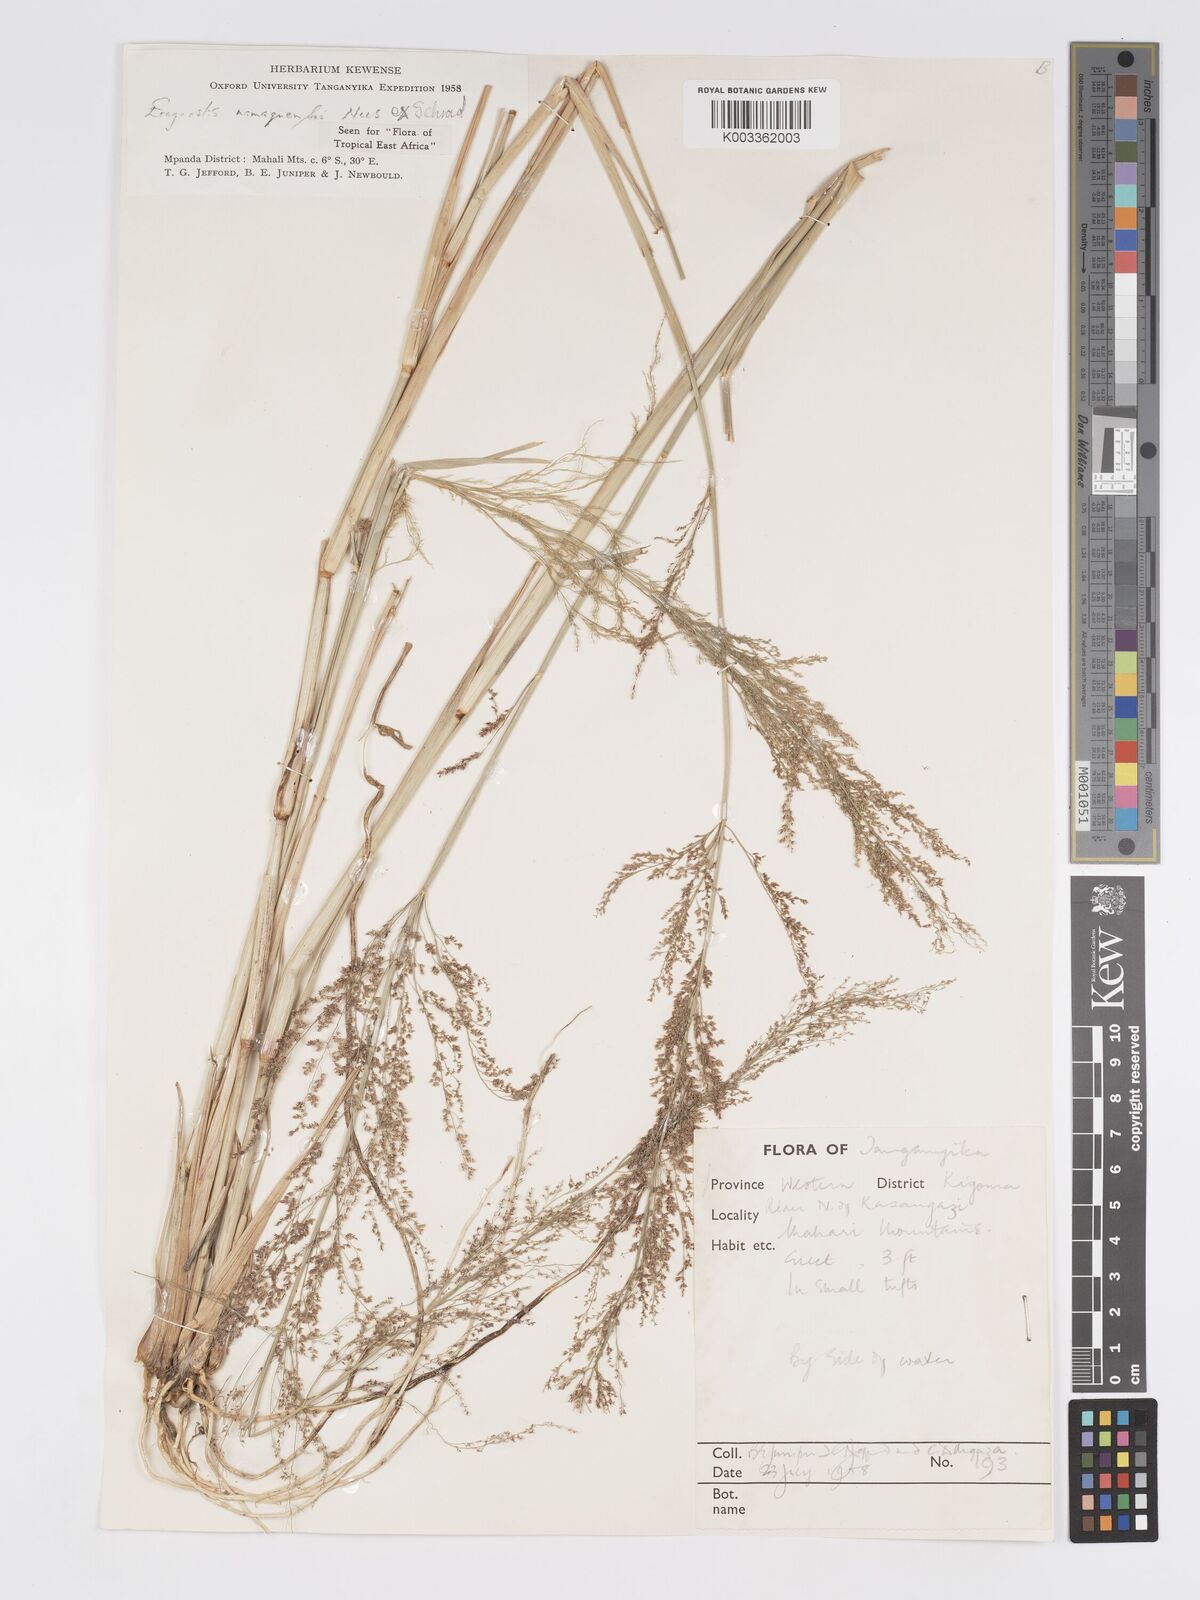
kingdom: Plantae
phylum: Tracheophyta
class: Liliopsida
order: Poales
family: Poaceae
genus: Eragrostis
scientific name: Eragrostis japonica
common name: Pond lovegrass
